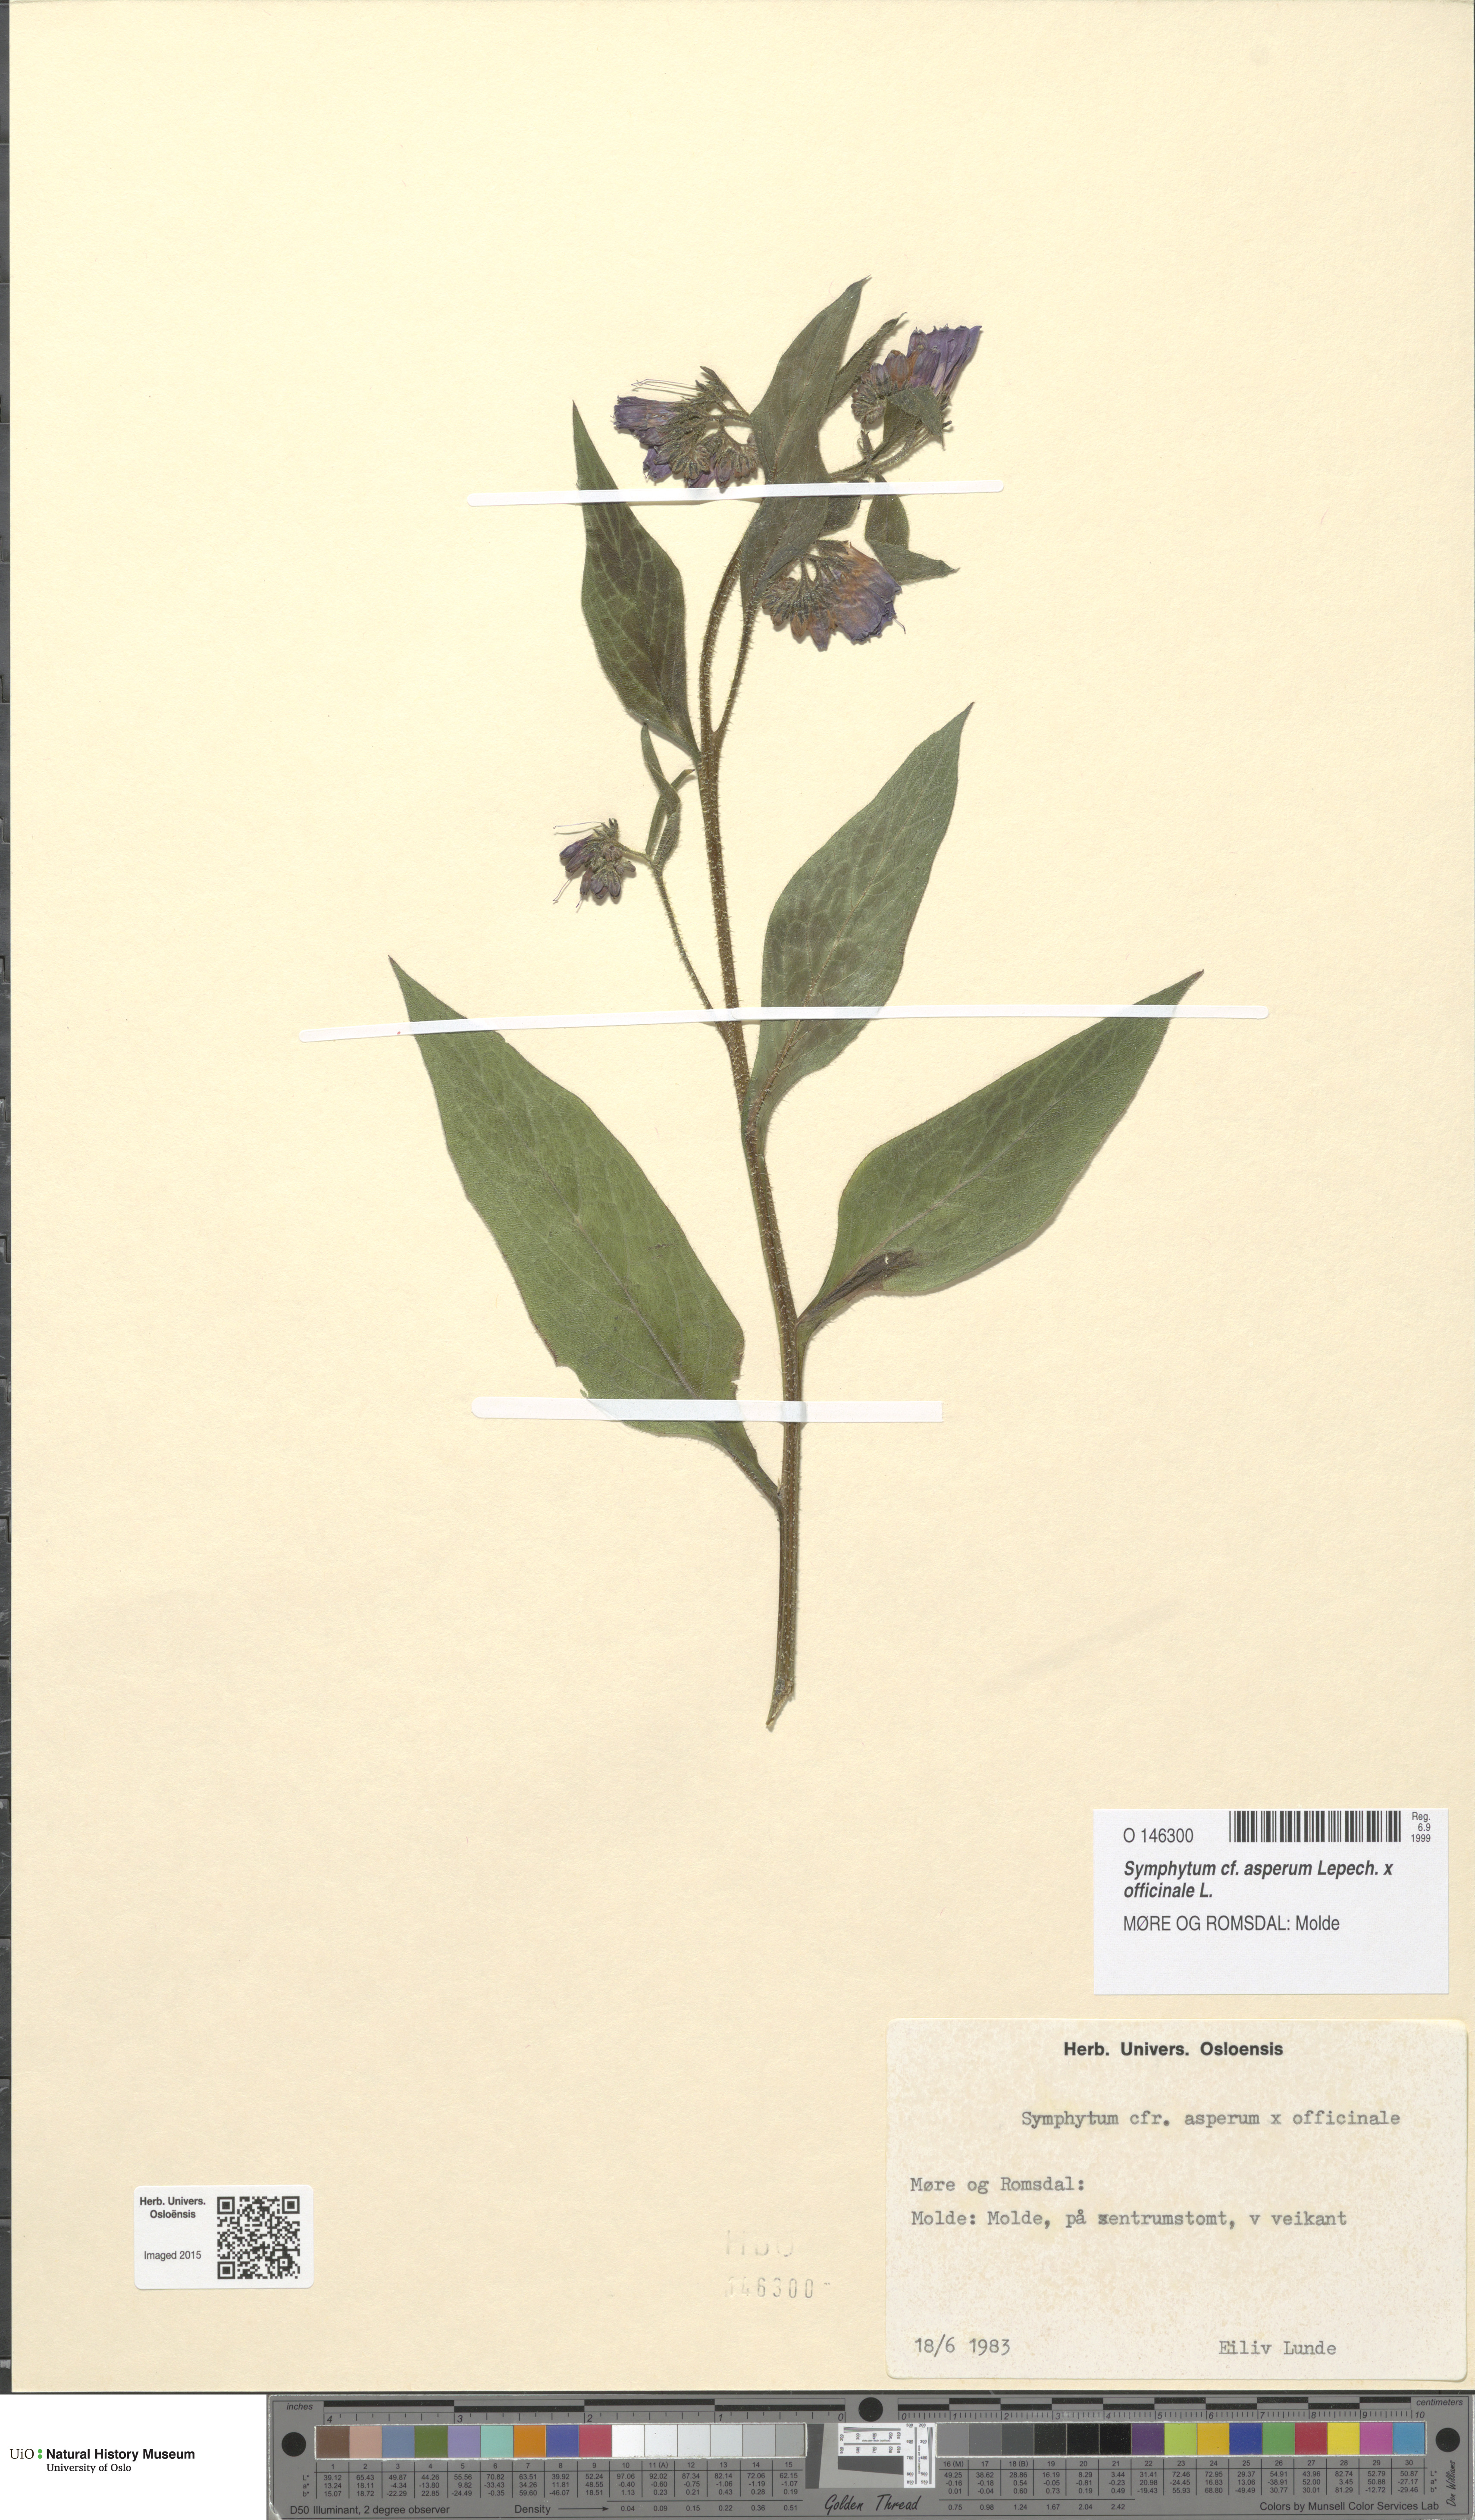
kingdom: Plantae
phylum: Tracheophyta
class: Magnoliopsida
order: Boraginales
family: Boraginaceae
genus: Symphytum
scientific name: Symphytum uplandicum
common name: Russian comfrey
